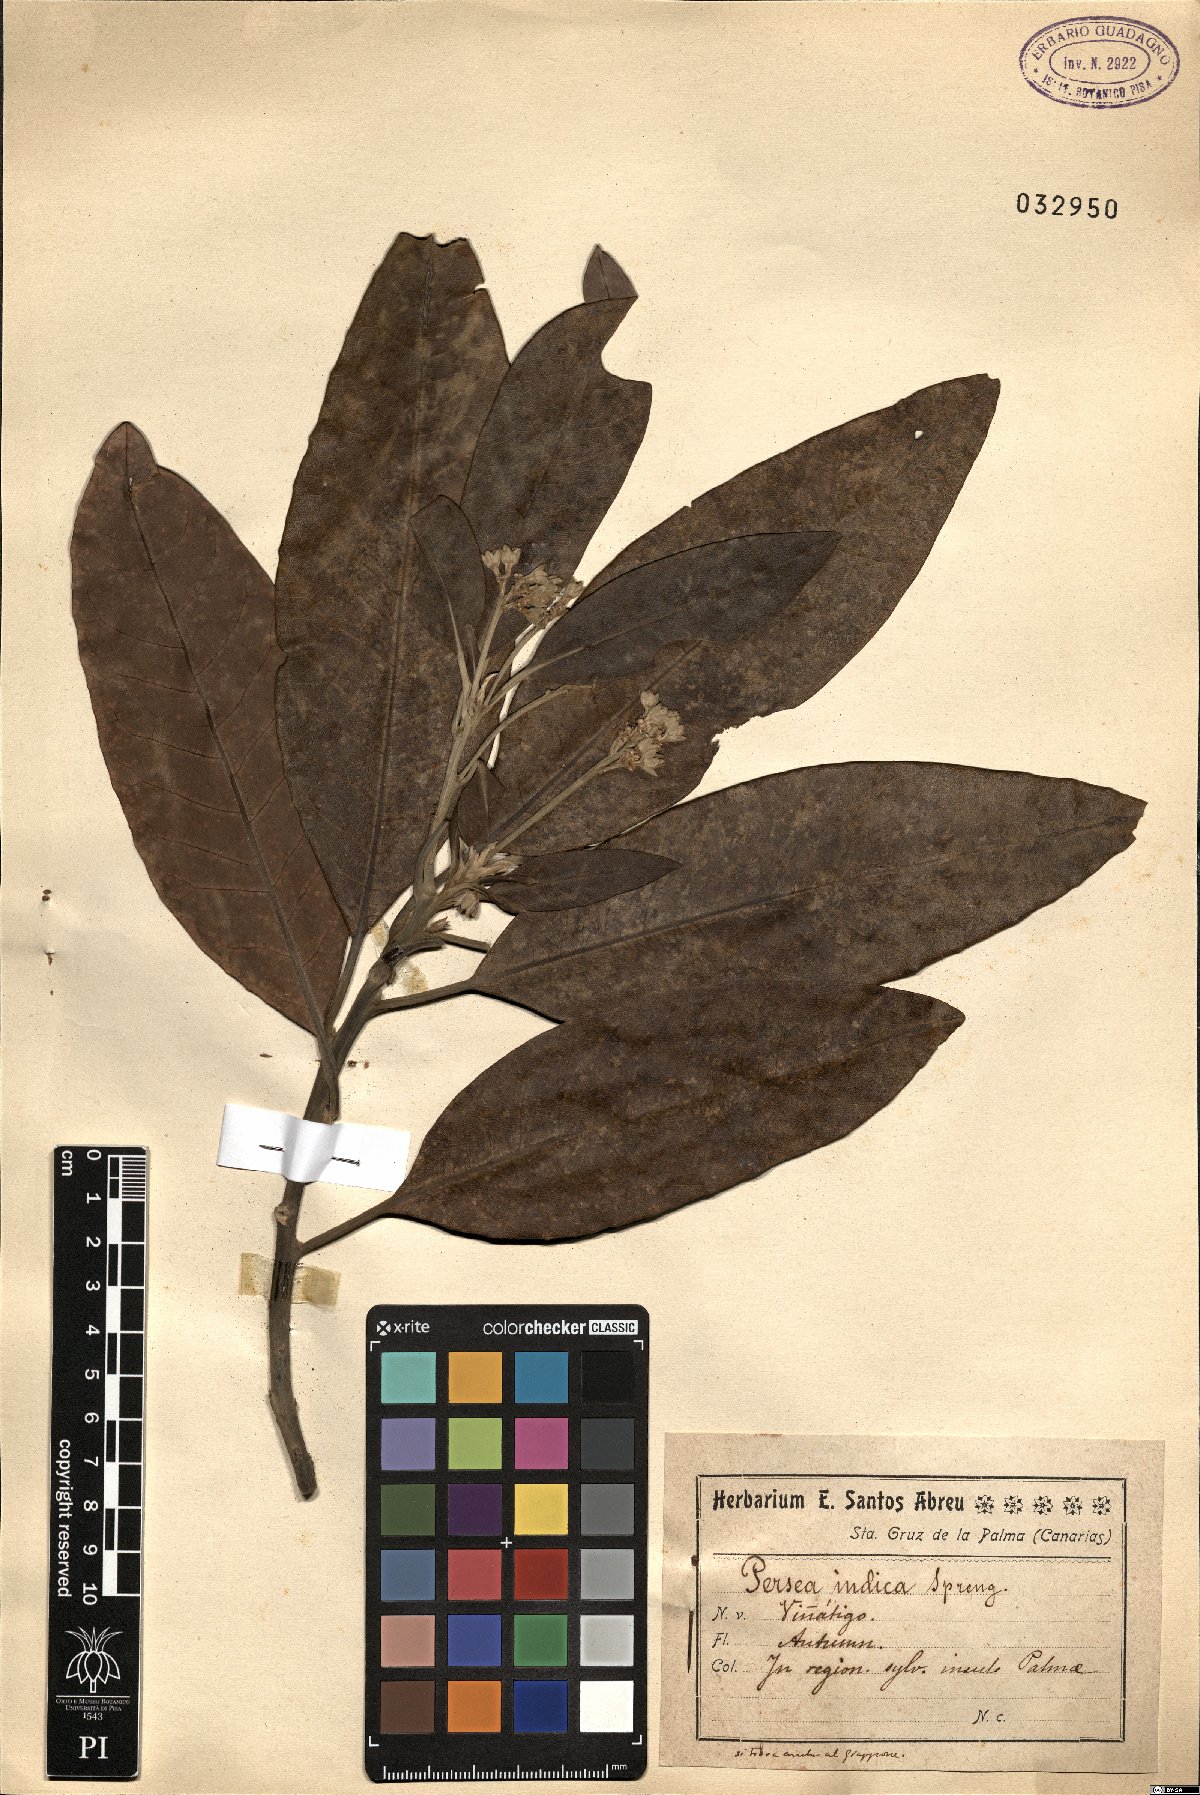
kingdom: Plantae
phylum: Tracheophyta
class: Magnoliopsida
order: Laurales
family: Lauraceae
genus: Persea
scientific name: Persea indica
